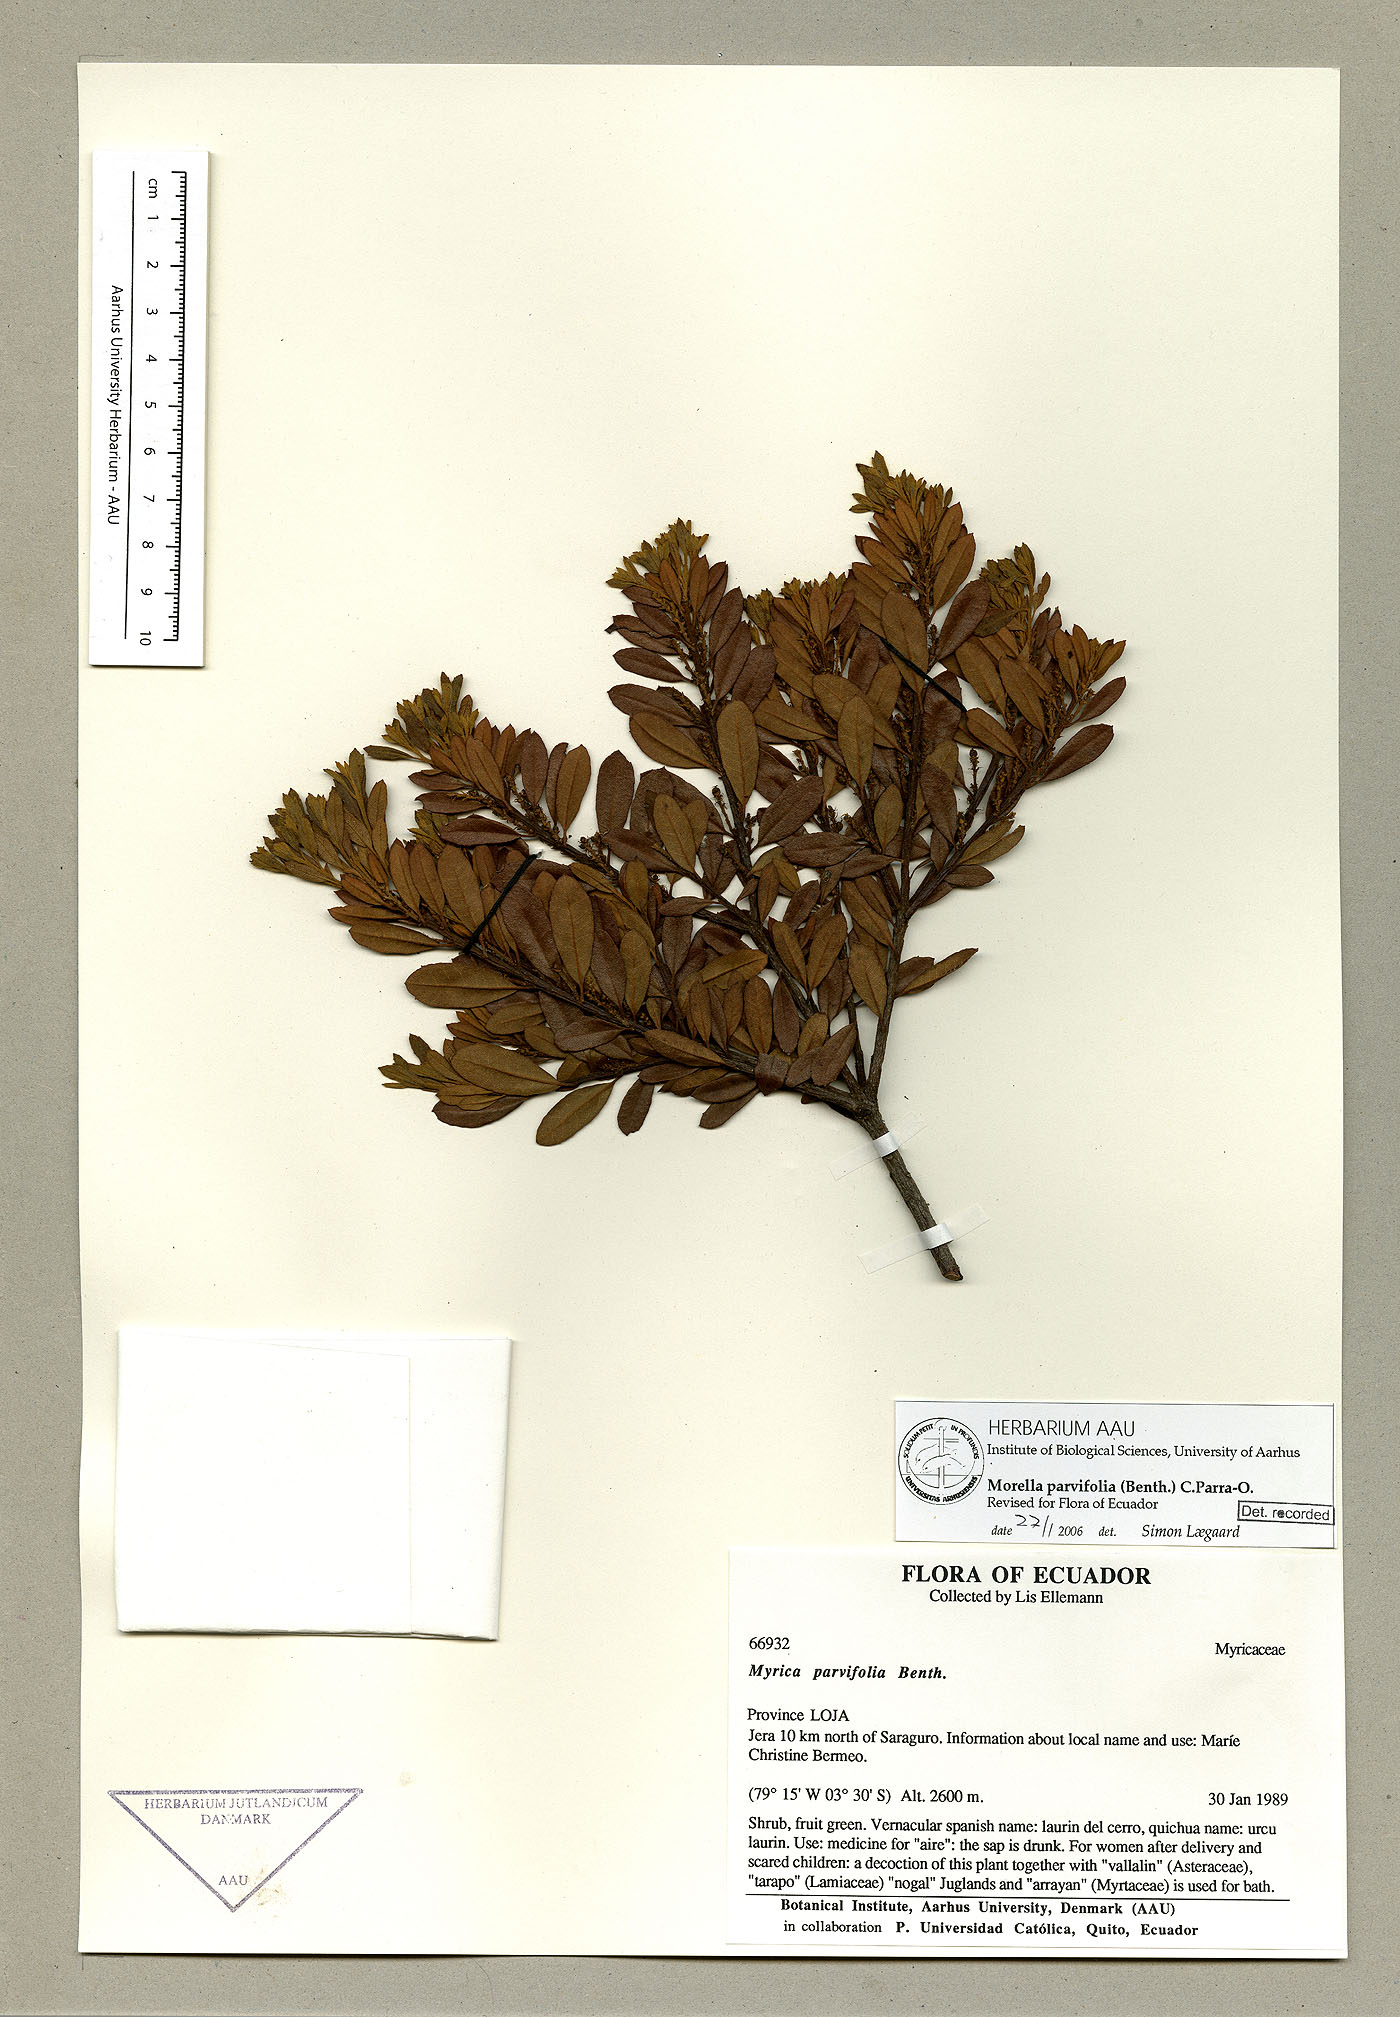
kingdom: Plantae
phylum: Tracheophyta
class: Magnoliopsida
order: Fagales
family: Myricaceae
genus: Morella
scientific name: Morella parvifolia
